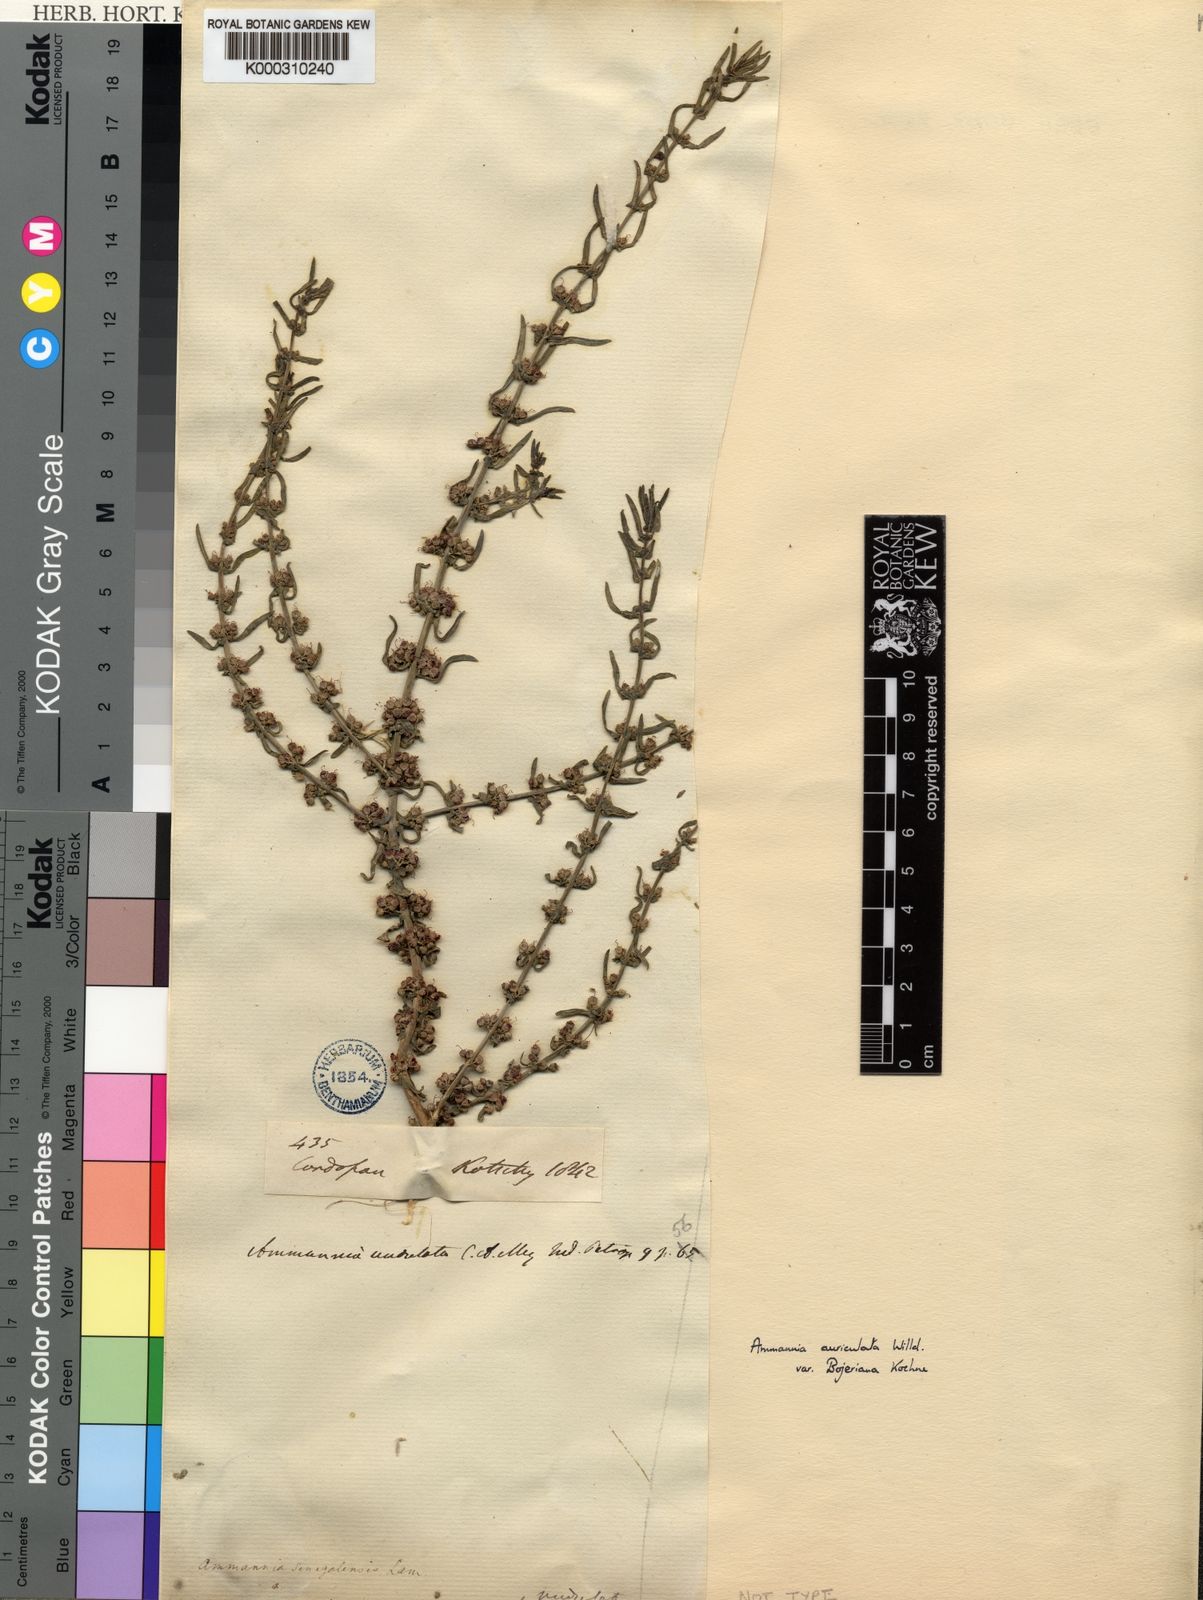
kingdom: Plantae
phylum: Tracheophyta
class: Magnoliopsida
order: Myrtales
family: Lythraceae
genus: Ammannia
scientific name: Ammannia
